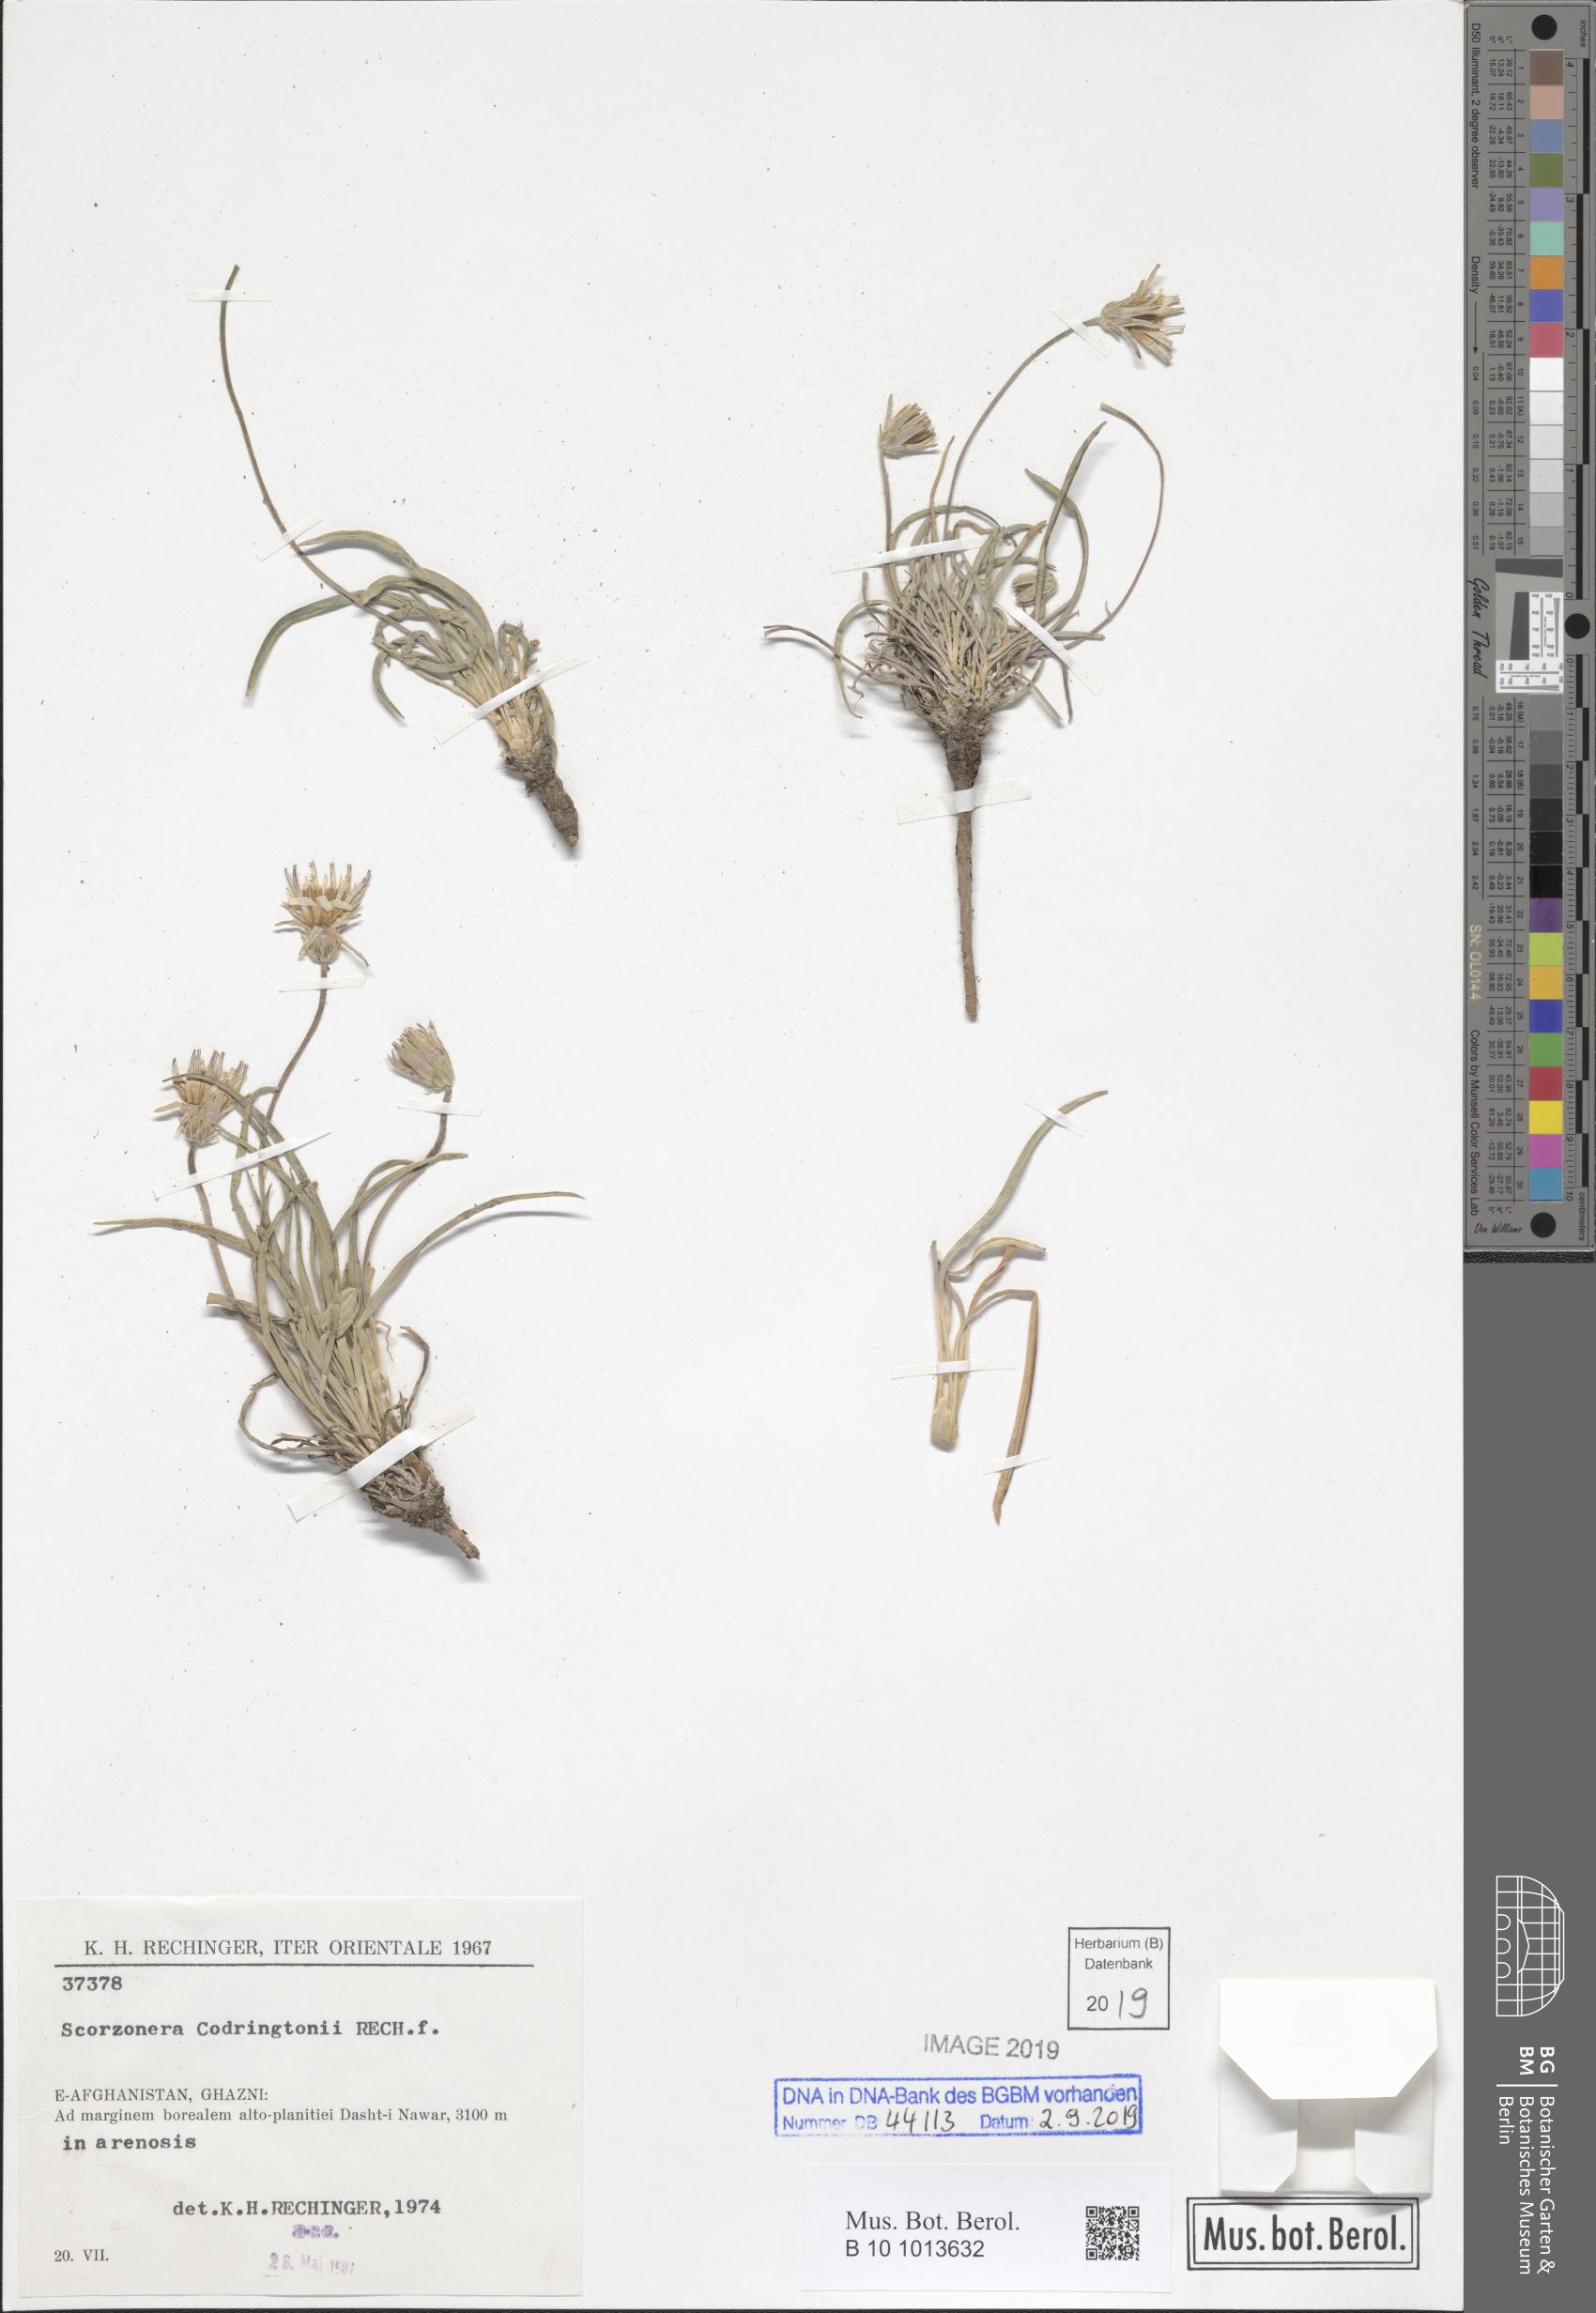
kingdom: Plantae
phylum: Tracheophyta
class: Magnoliopsida
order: Asterales
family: Asteraceae
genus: Pterachaenia
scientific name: Pterachaenia codringtonii
